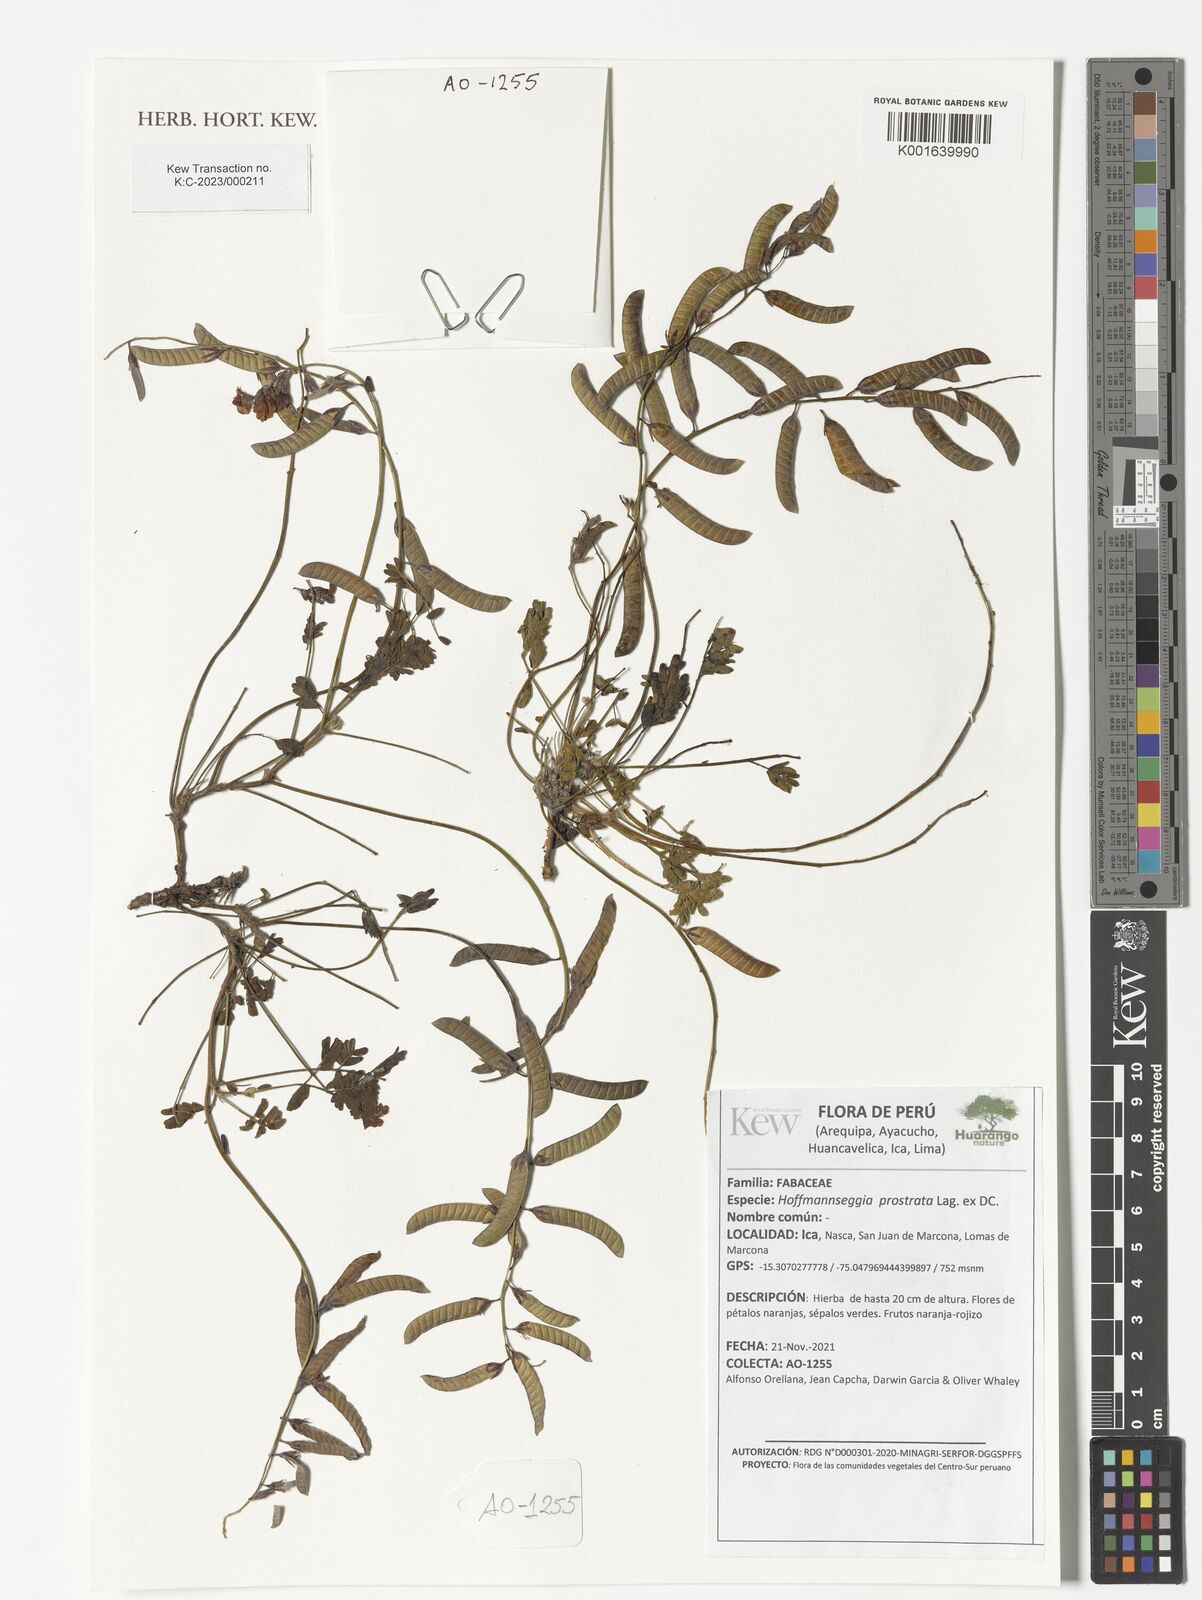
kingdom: Plantae
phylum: Tracheophyta
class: Magnoliopsida
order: Fabales
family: Fabaceae
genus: Hoffmannseggia
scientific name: Hoffmannseggia prostrata
